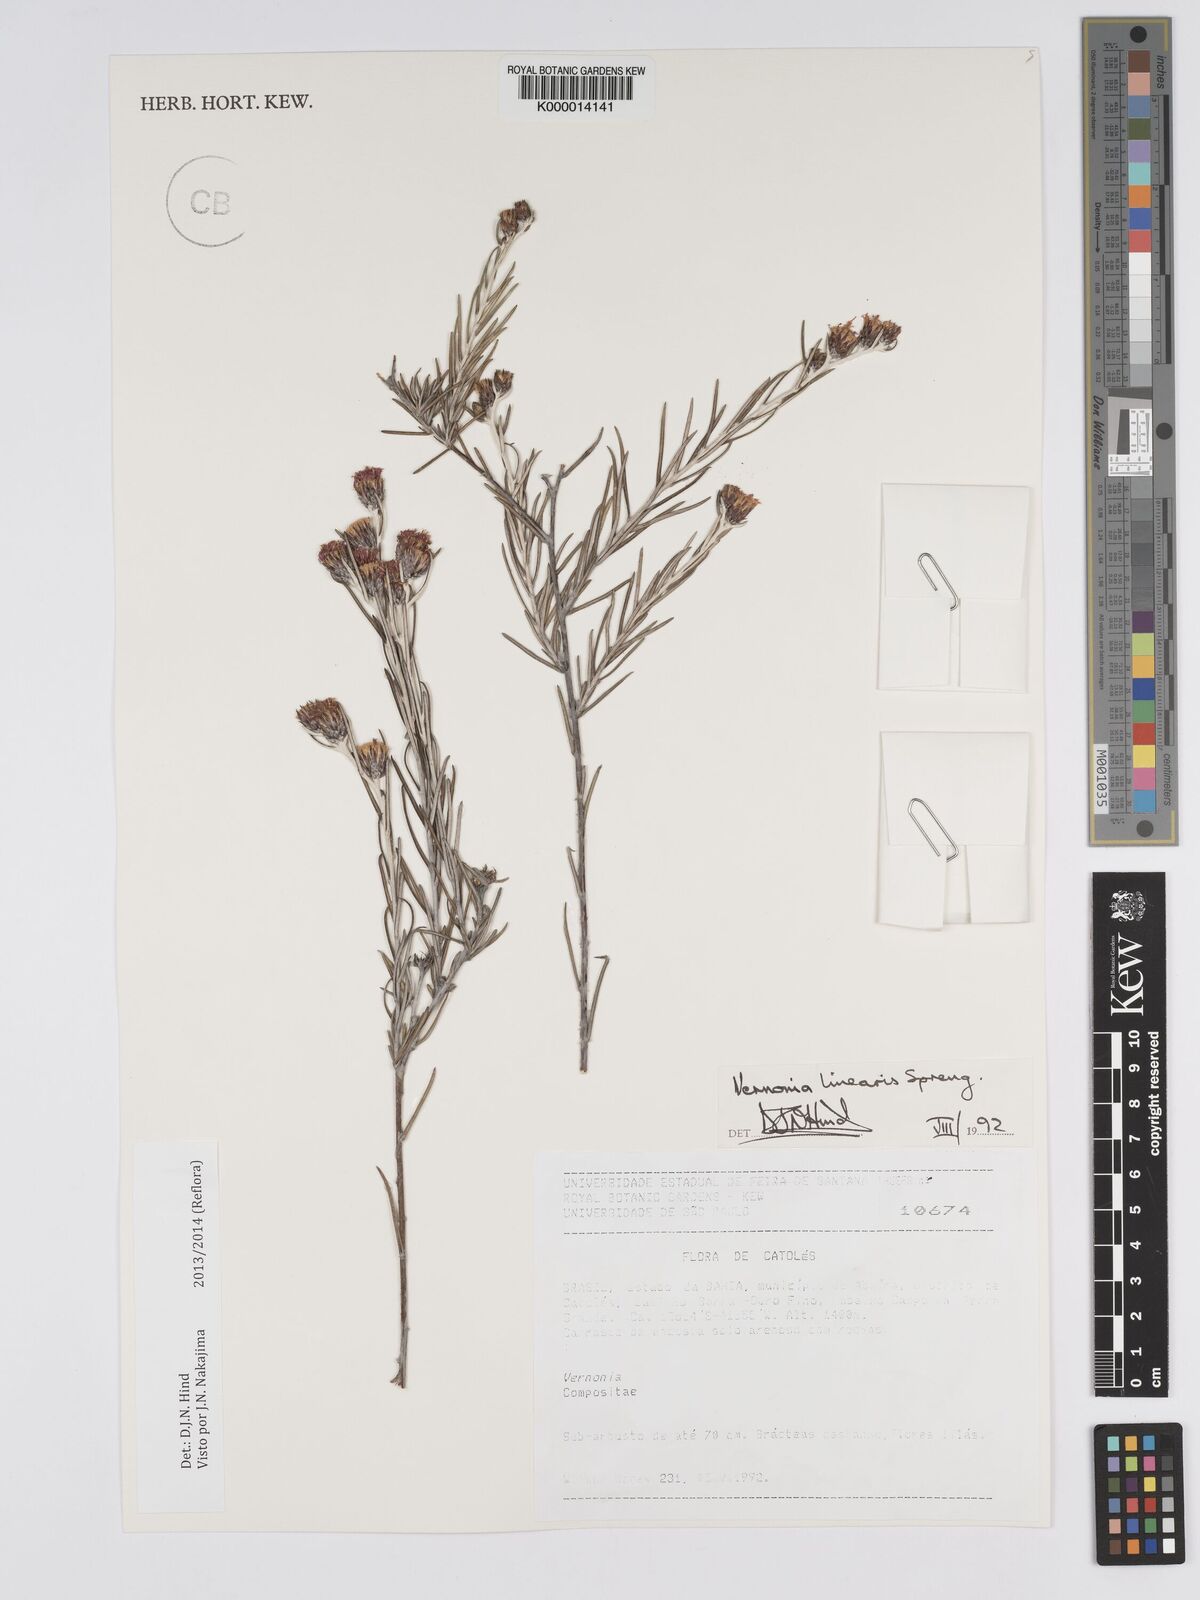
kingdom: Plantae
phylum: Tracheophyta
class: Magnoliopsida
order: Asterales
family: Asteraceae
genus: Lessingianthus
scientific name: Lessingianthus linearis
